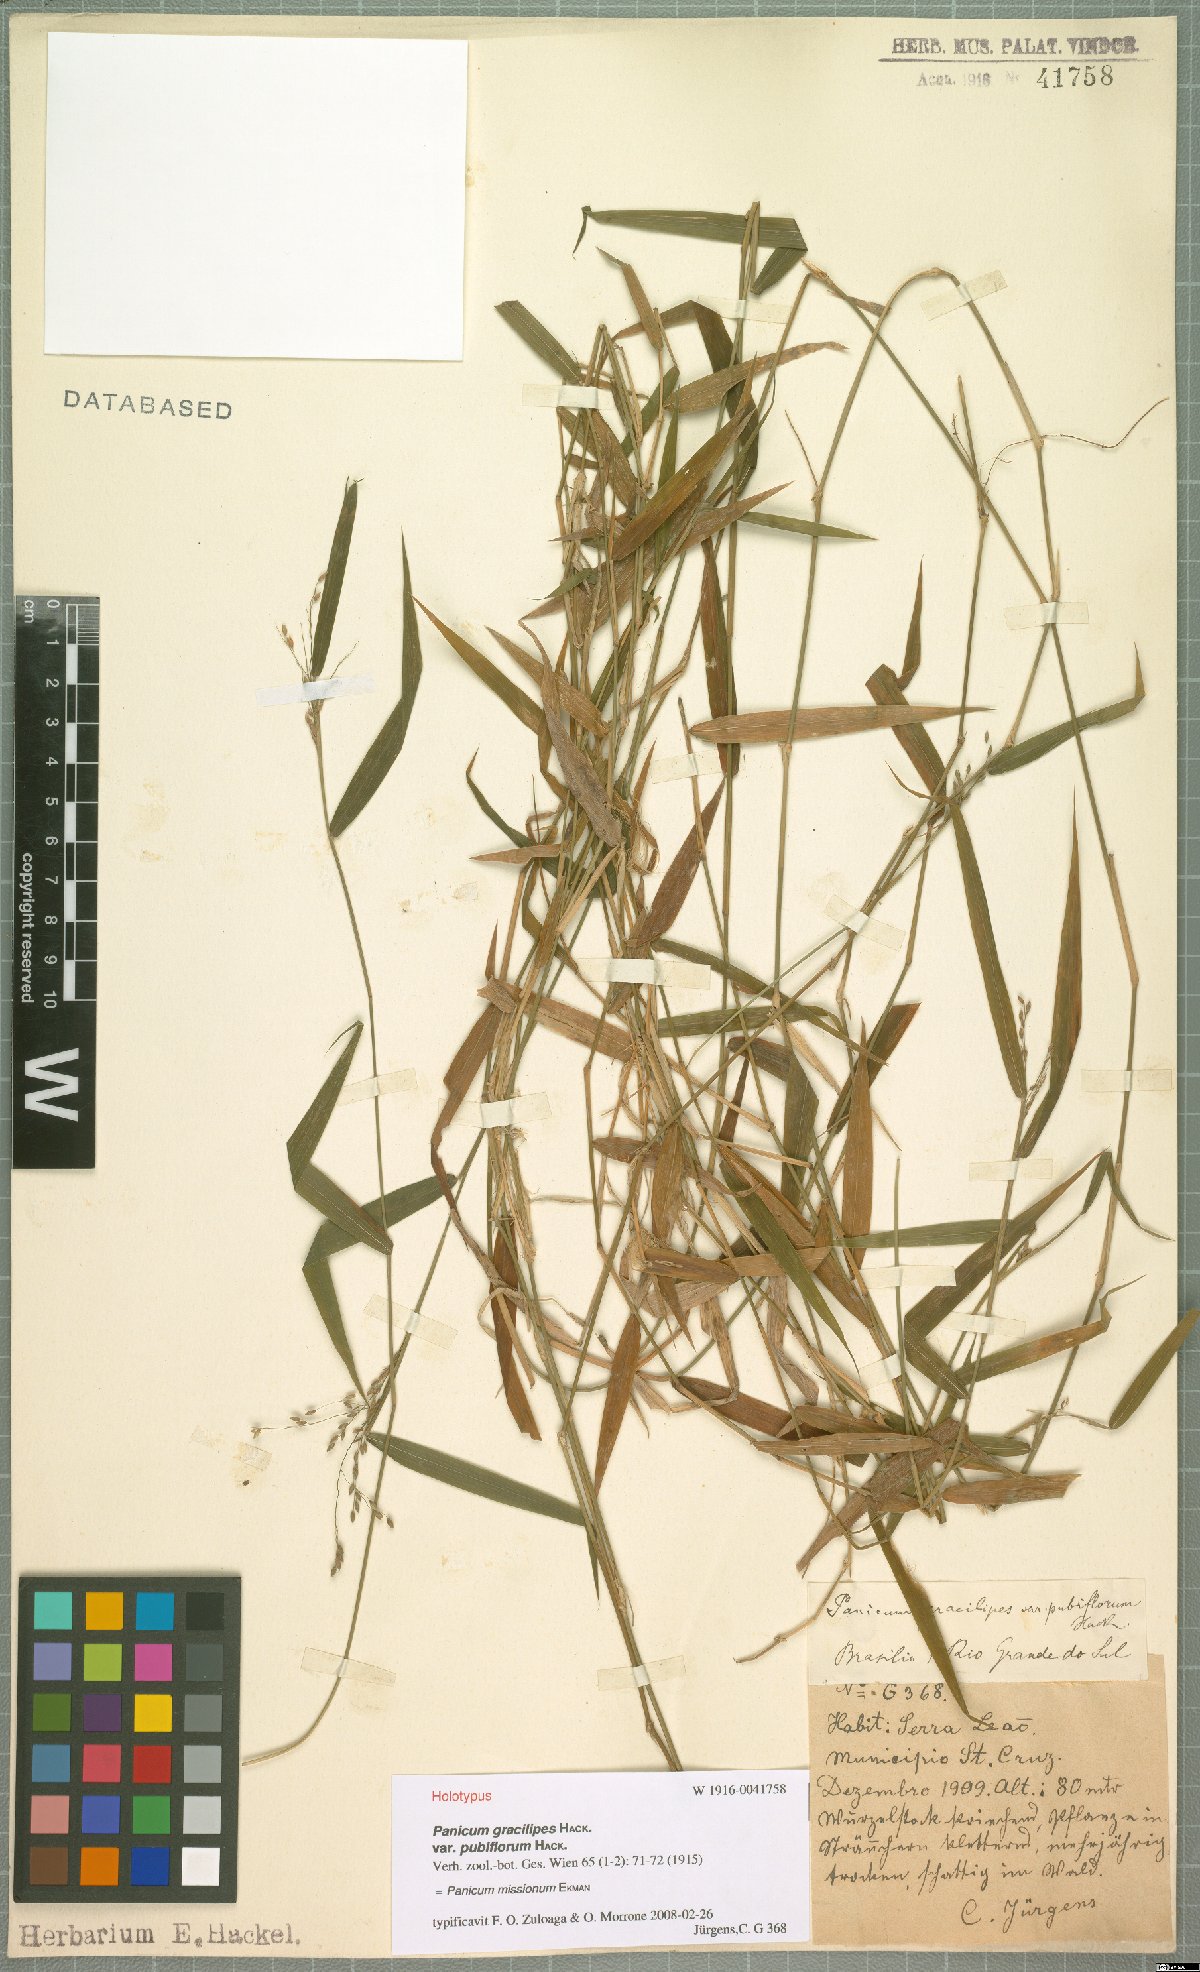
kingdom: Plantae
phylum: Tracheophyta
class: Liliopsida
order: Poales
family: Poaceae
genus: Parodiophyllochloa
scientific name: Parodiophyllochloa missiona
